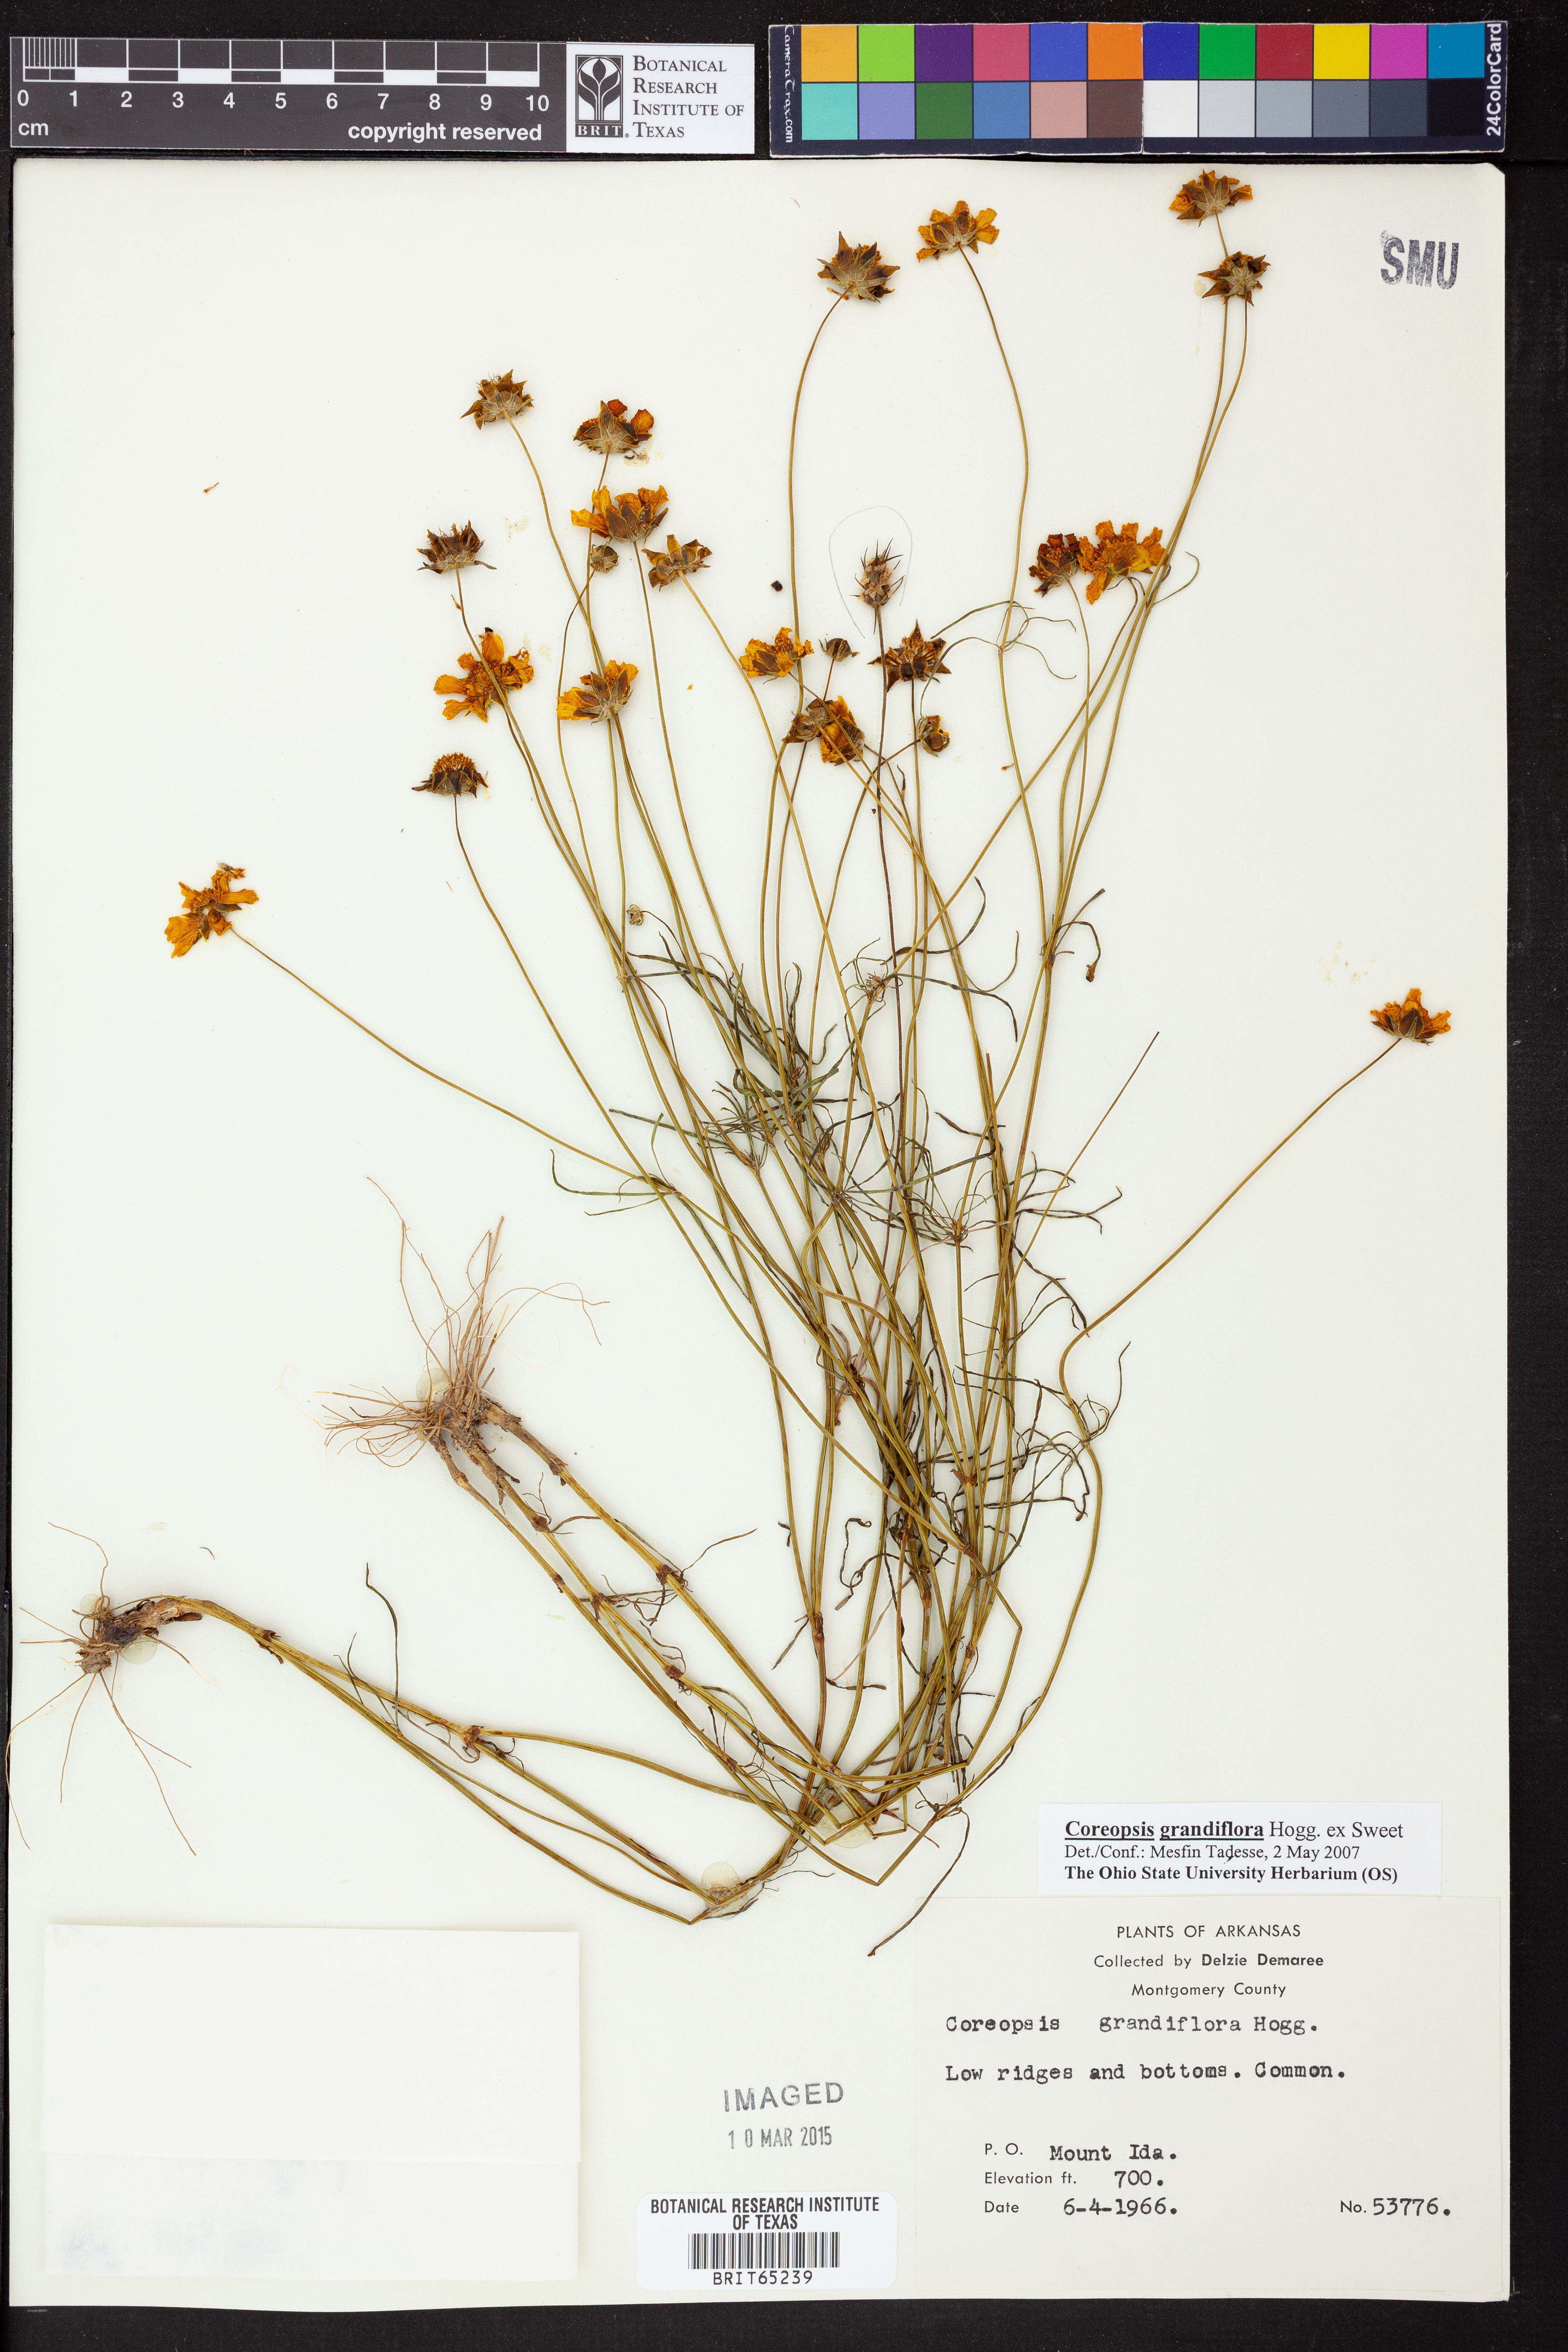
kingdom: Plantae
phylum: Tracheophyta
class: Magnoliopsida
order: Asterales
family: Asteraceae
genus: Coreopsis
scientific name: Coreopsis grandiflora
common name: Large-flowered tickseed
